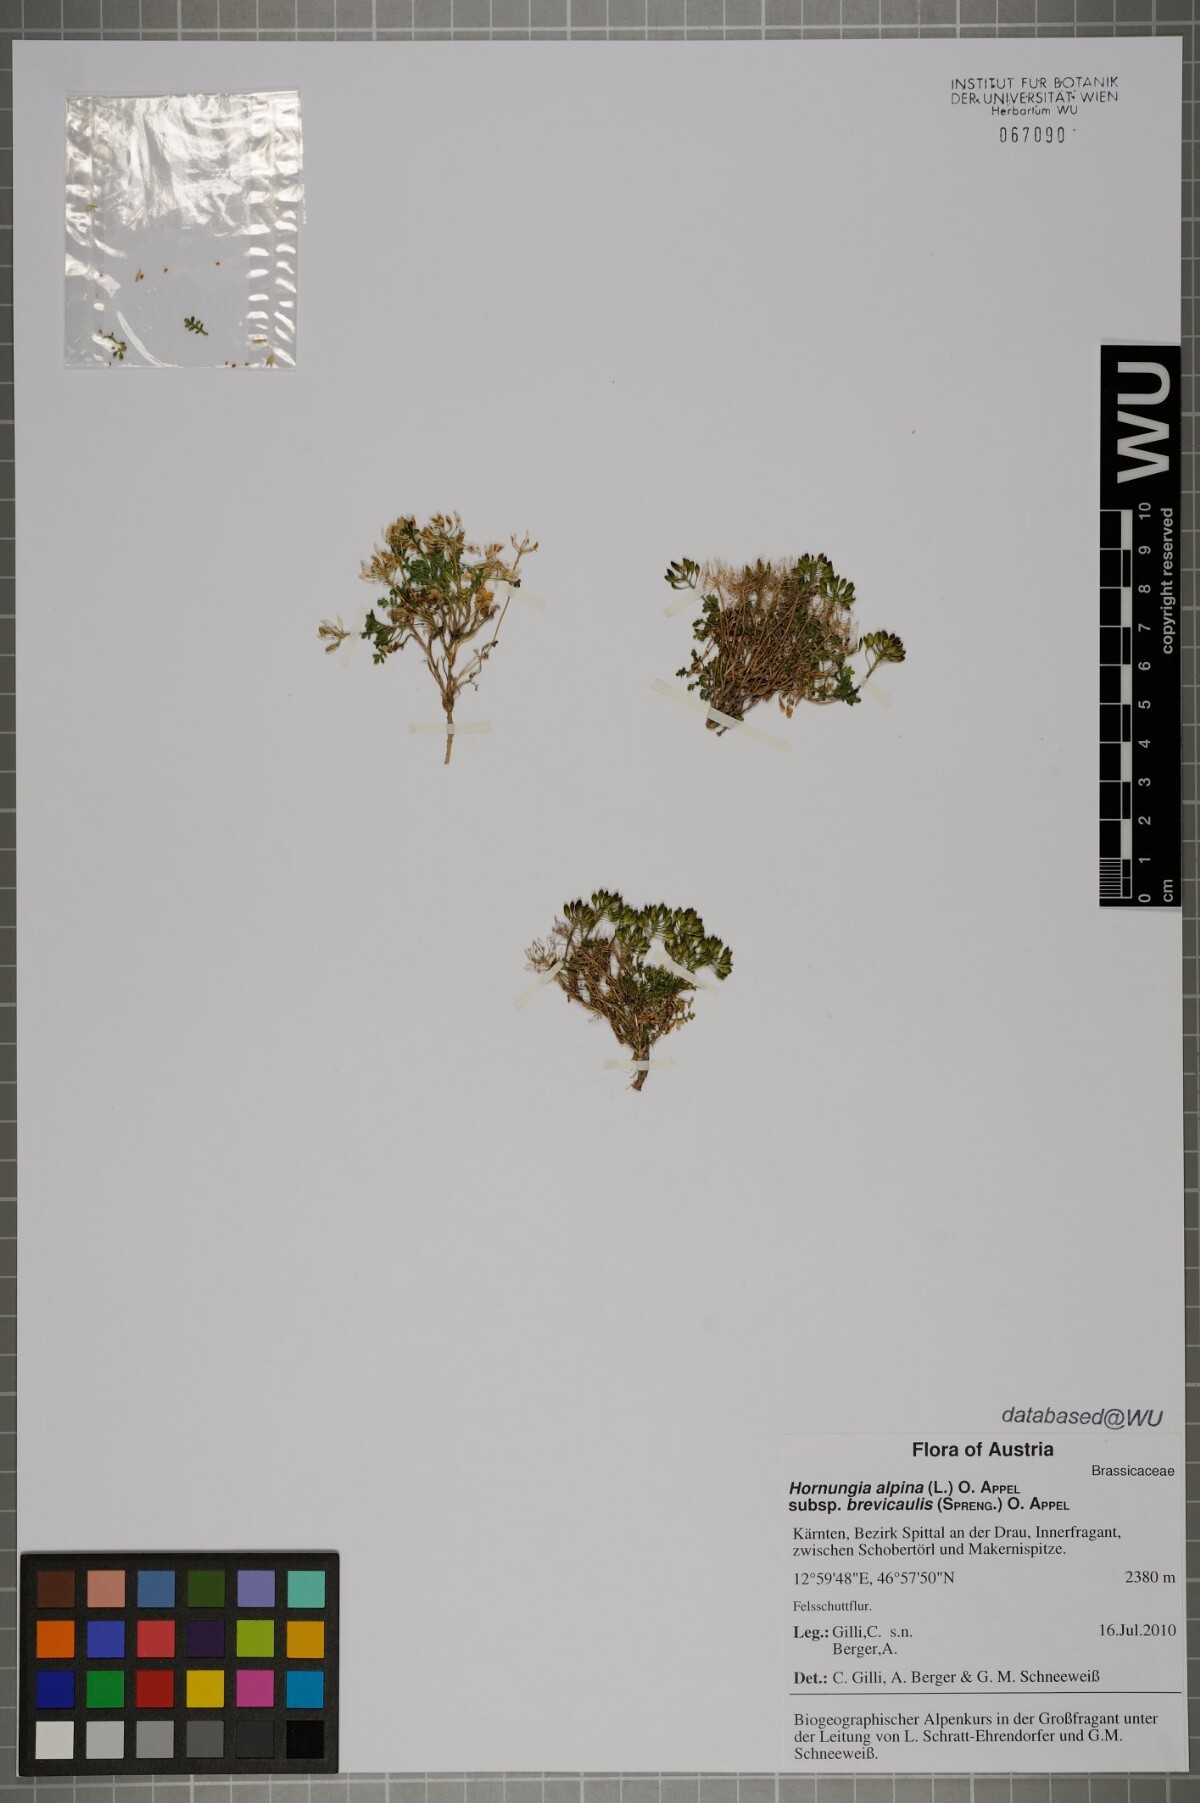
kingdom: Plantae
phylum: Tracheophyta
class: Magnoliopsida
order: Brassicales
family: Brassicaceae
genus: Hornungia
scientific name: Hornungia alpina
